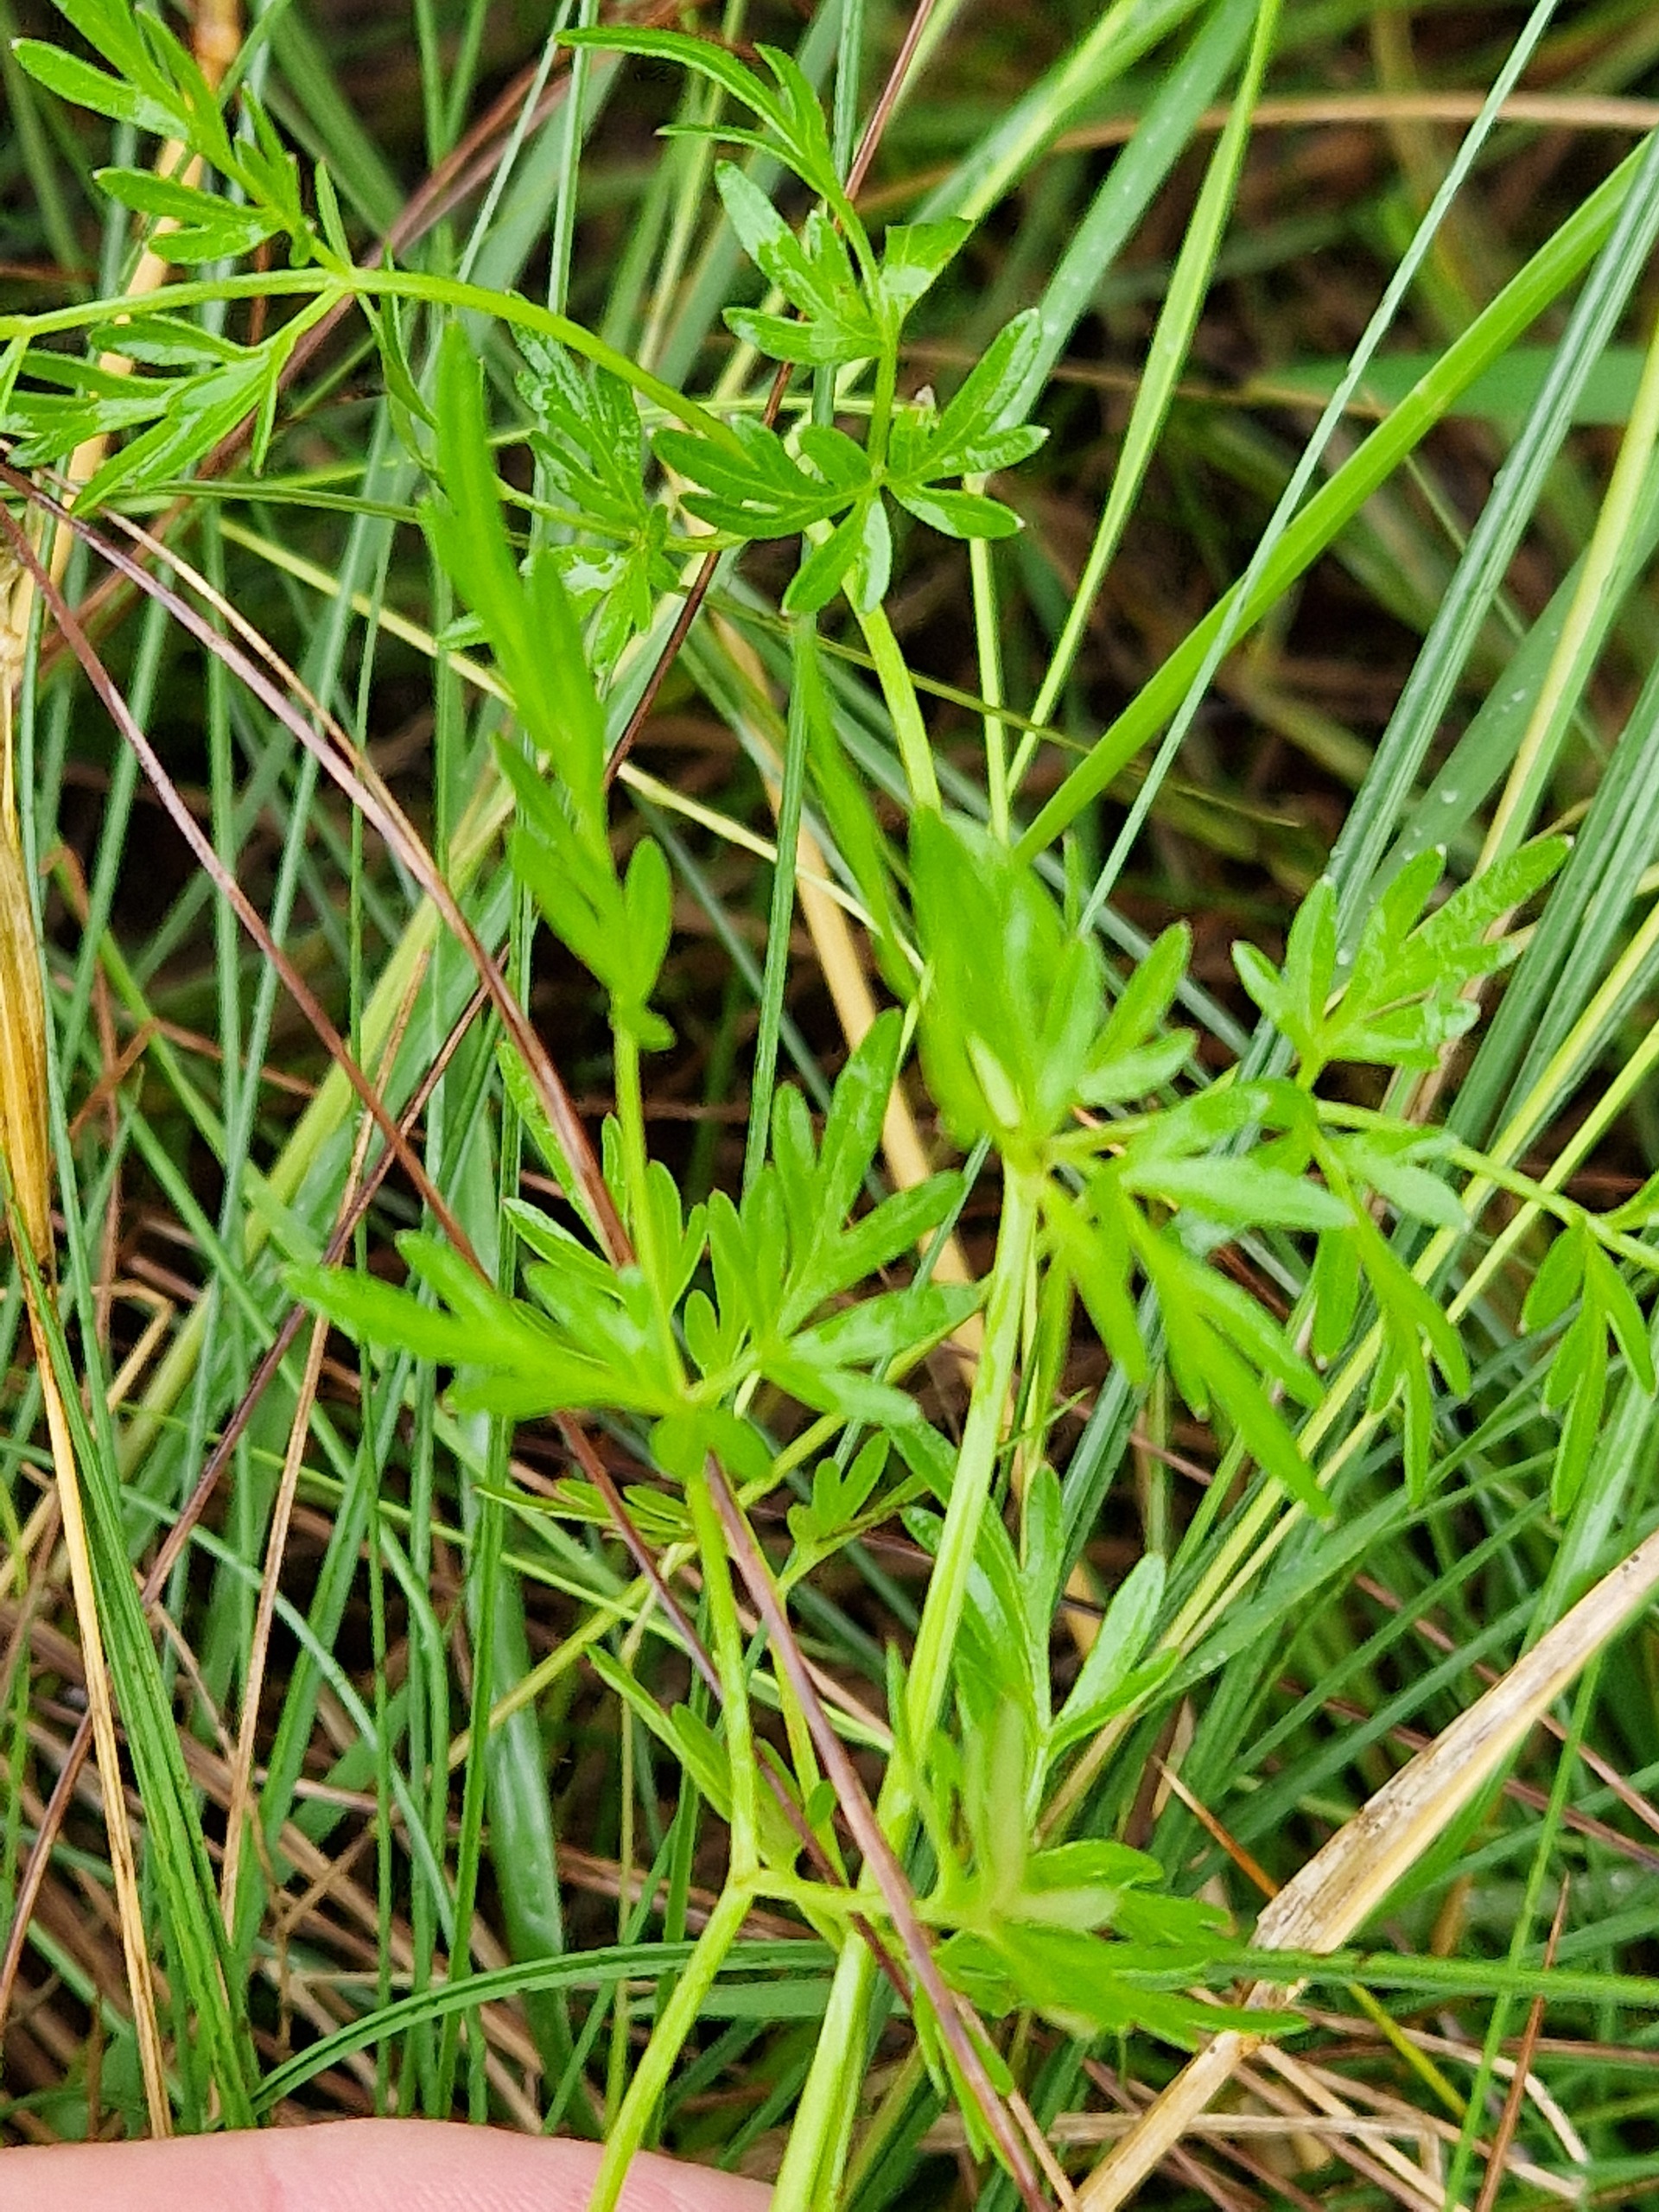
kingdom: Plantae
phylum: Tracheophyta
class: Magnoliopsida
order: Apiales
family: Apiaceae
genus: Thysselinum
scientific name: Thysselinum palustre
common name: Kær-svovlrod
